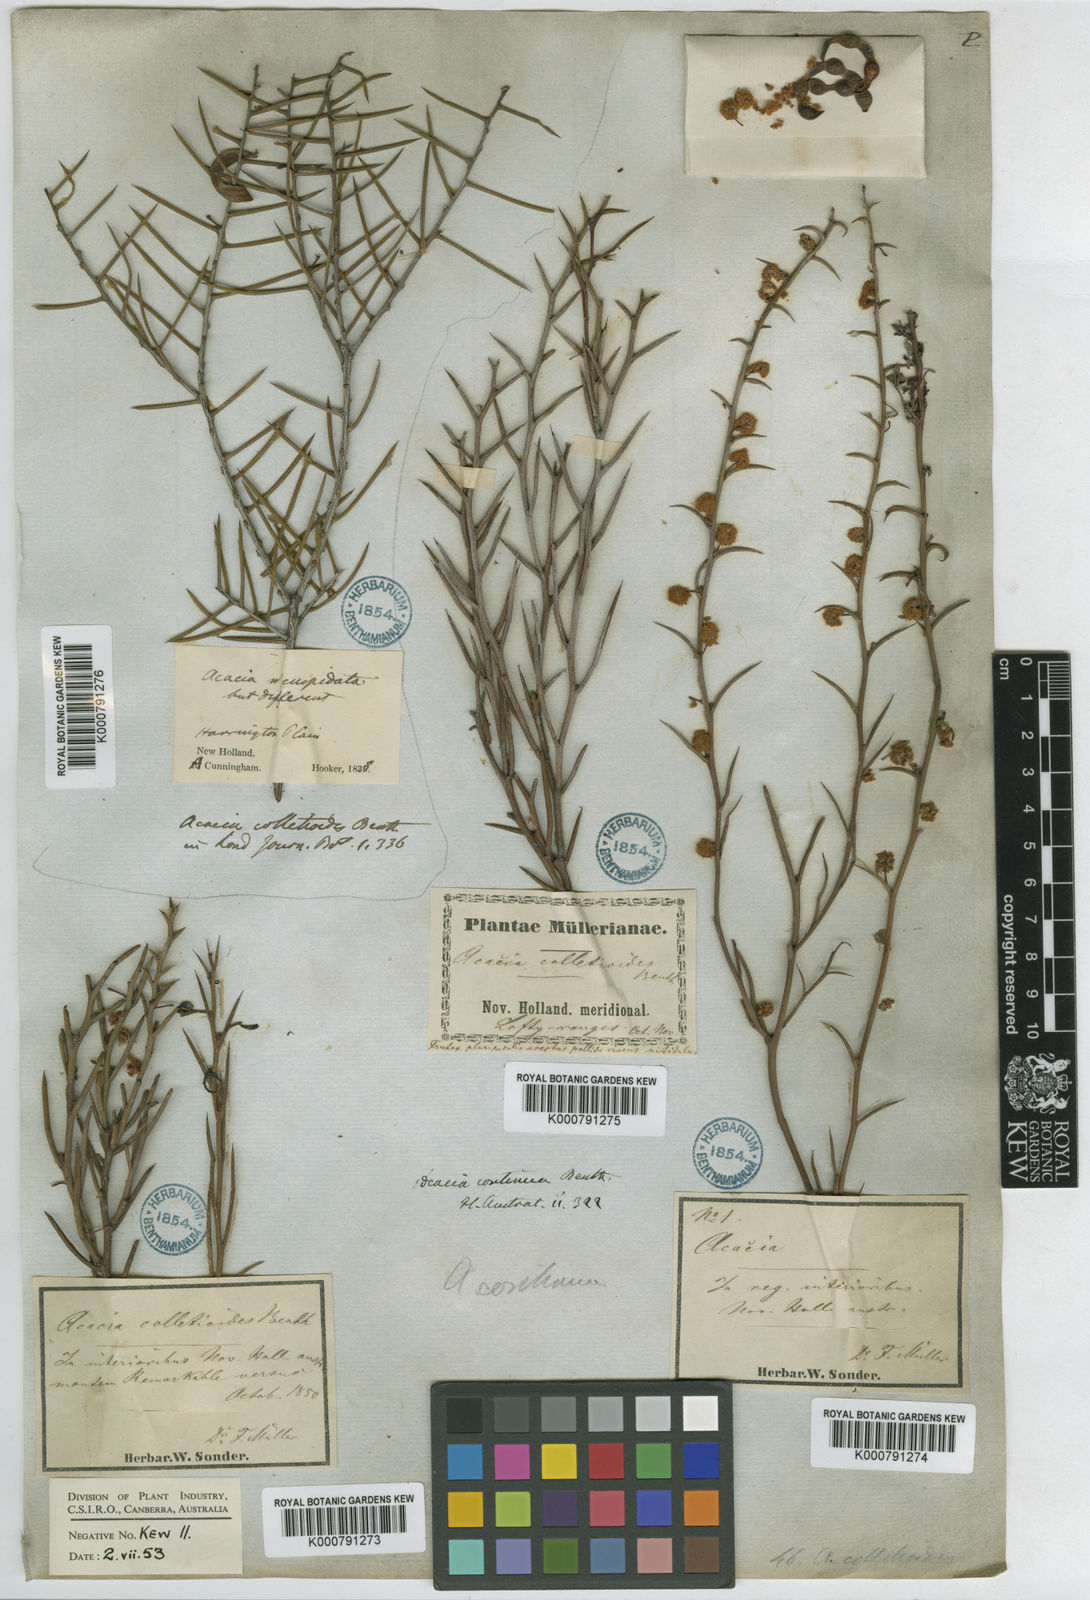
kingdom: Plantae
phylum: Tracheophyta
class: Magnoliopsida
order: Fabales
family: Fabaceae
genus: Acacia
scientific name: Acacia continua
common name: Thorn wattle
